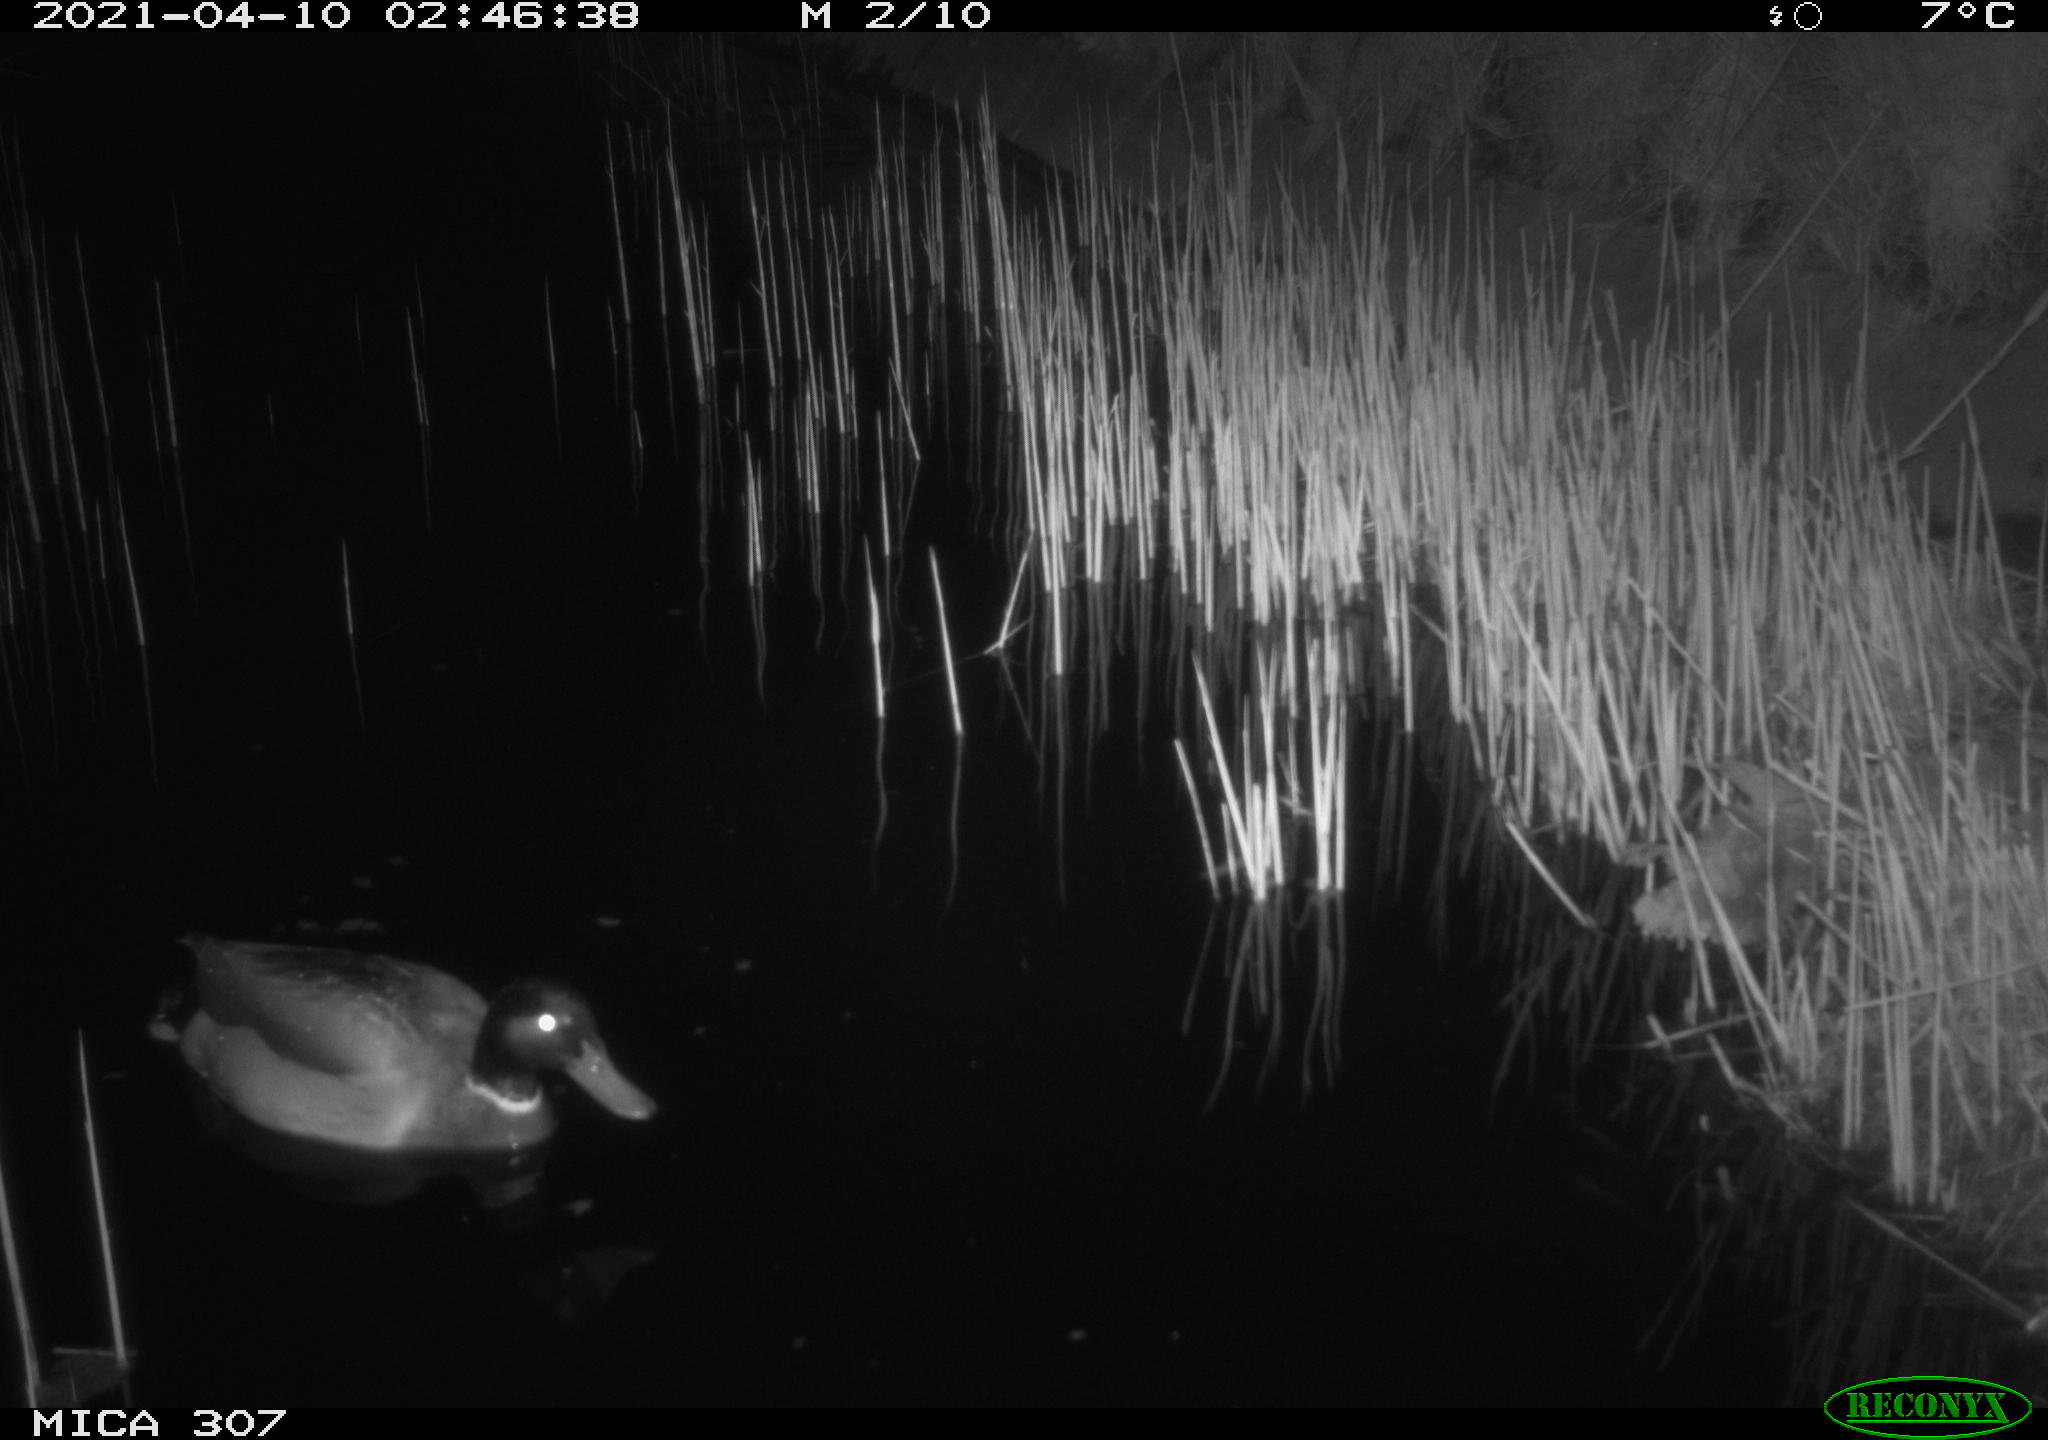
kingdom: Animalia
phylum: Chordata
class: Aves
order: Anseriformes
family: Anatidae
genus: Anas
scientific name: Anas platyrhynchos
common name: Mallard
